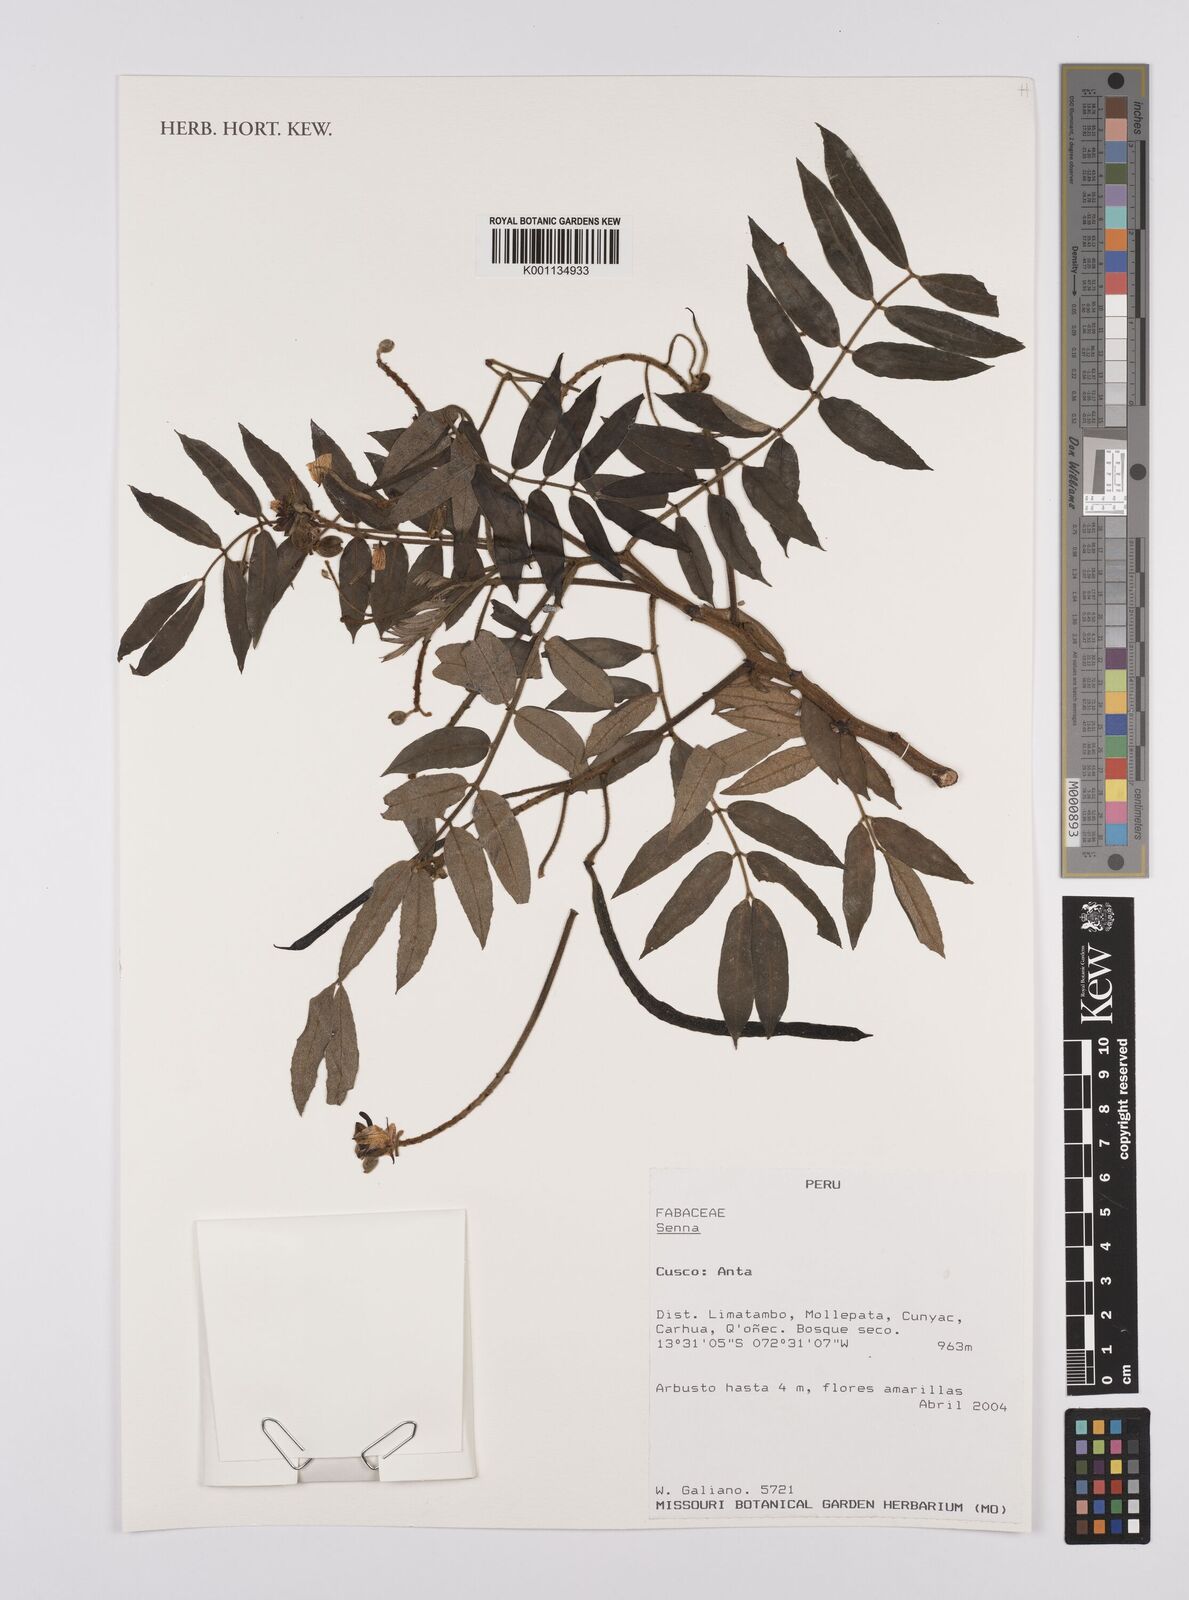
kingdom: Plantae
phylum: Tracheophyta
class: Magnoliopsida
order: Fabales
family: Fabaceae
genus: Senna
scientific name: Senna
